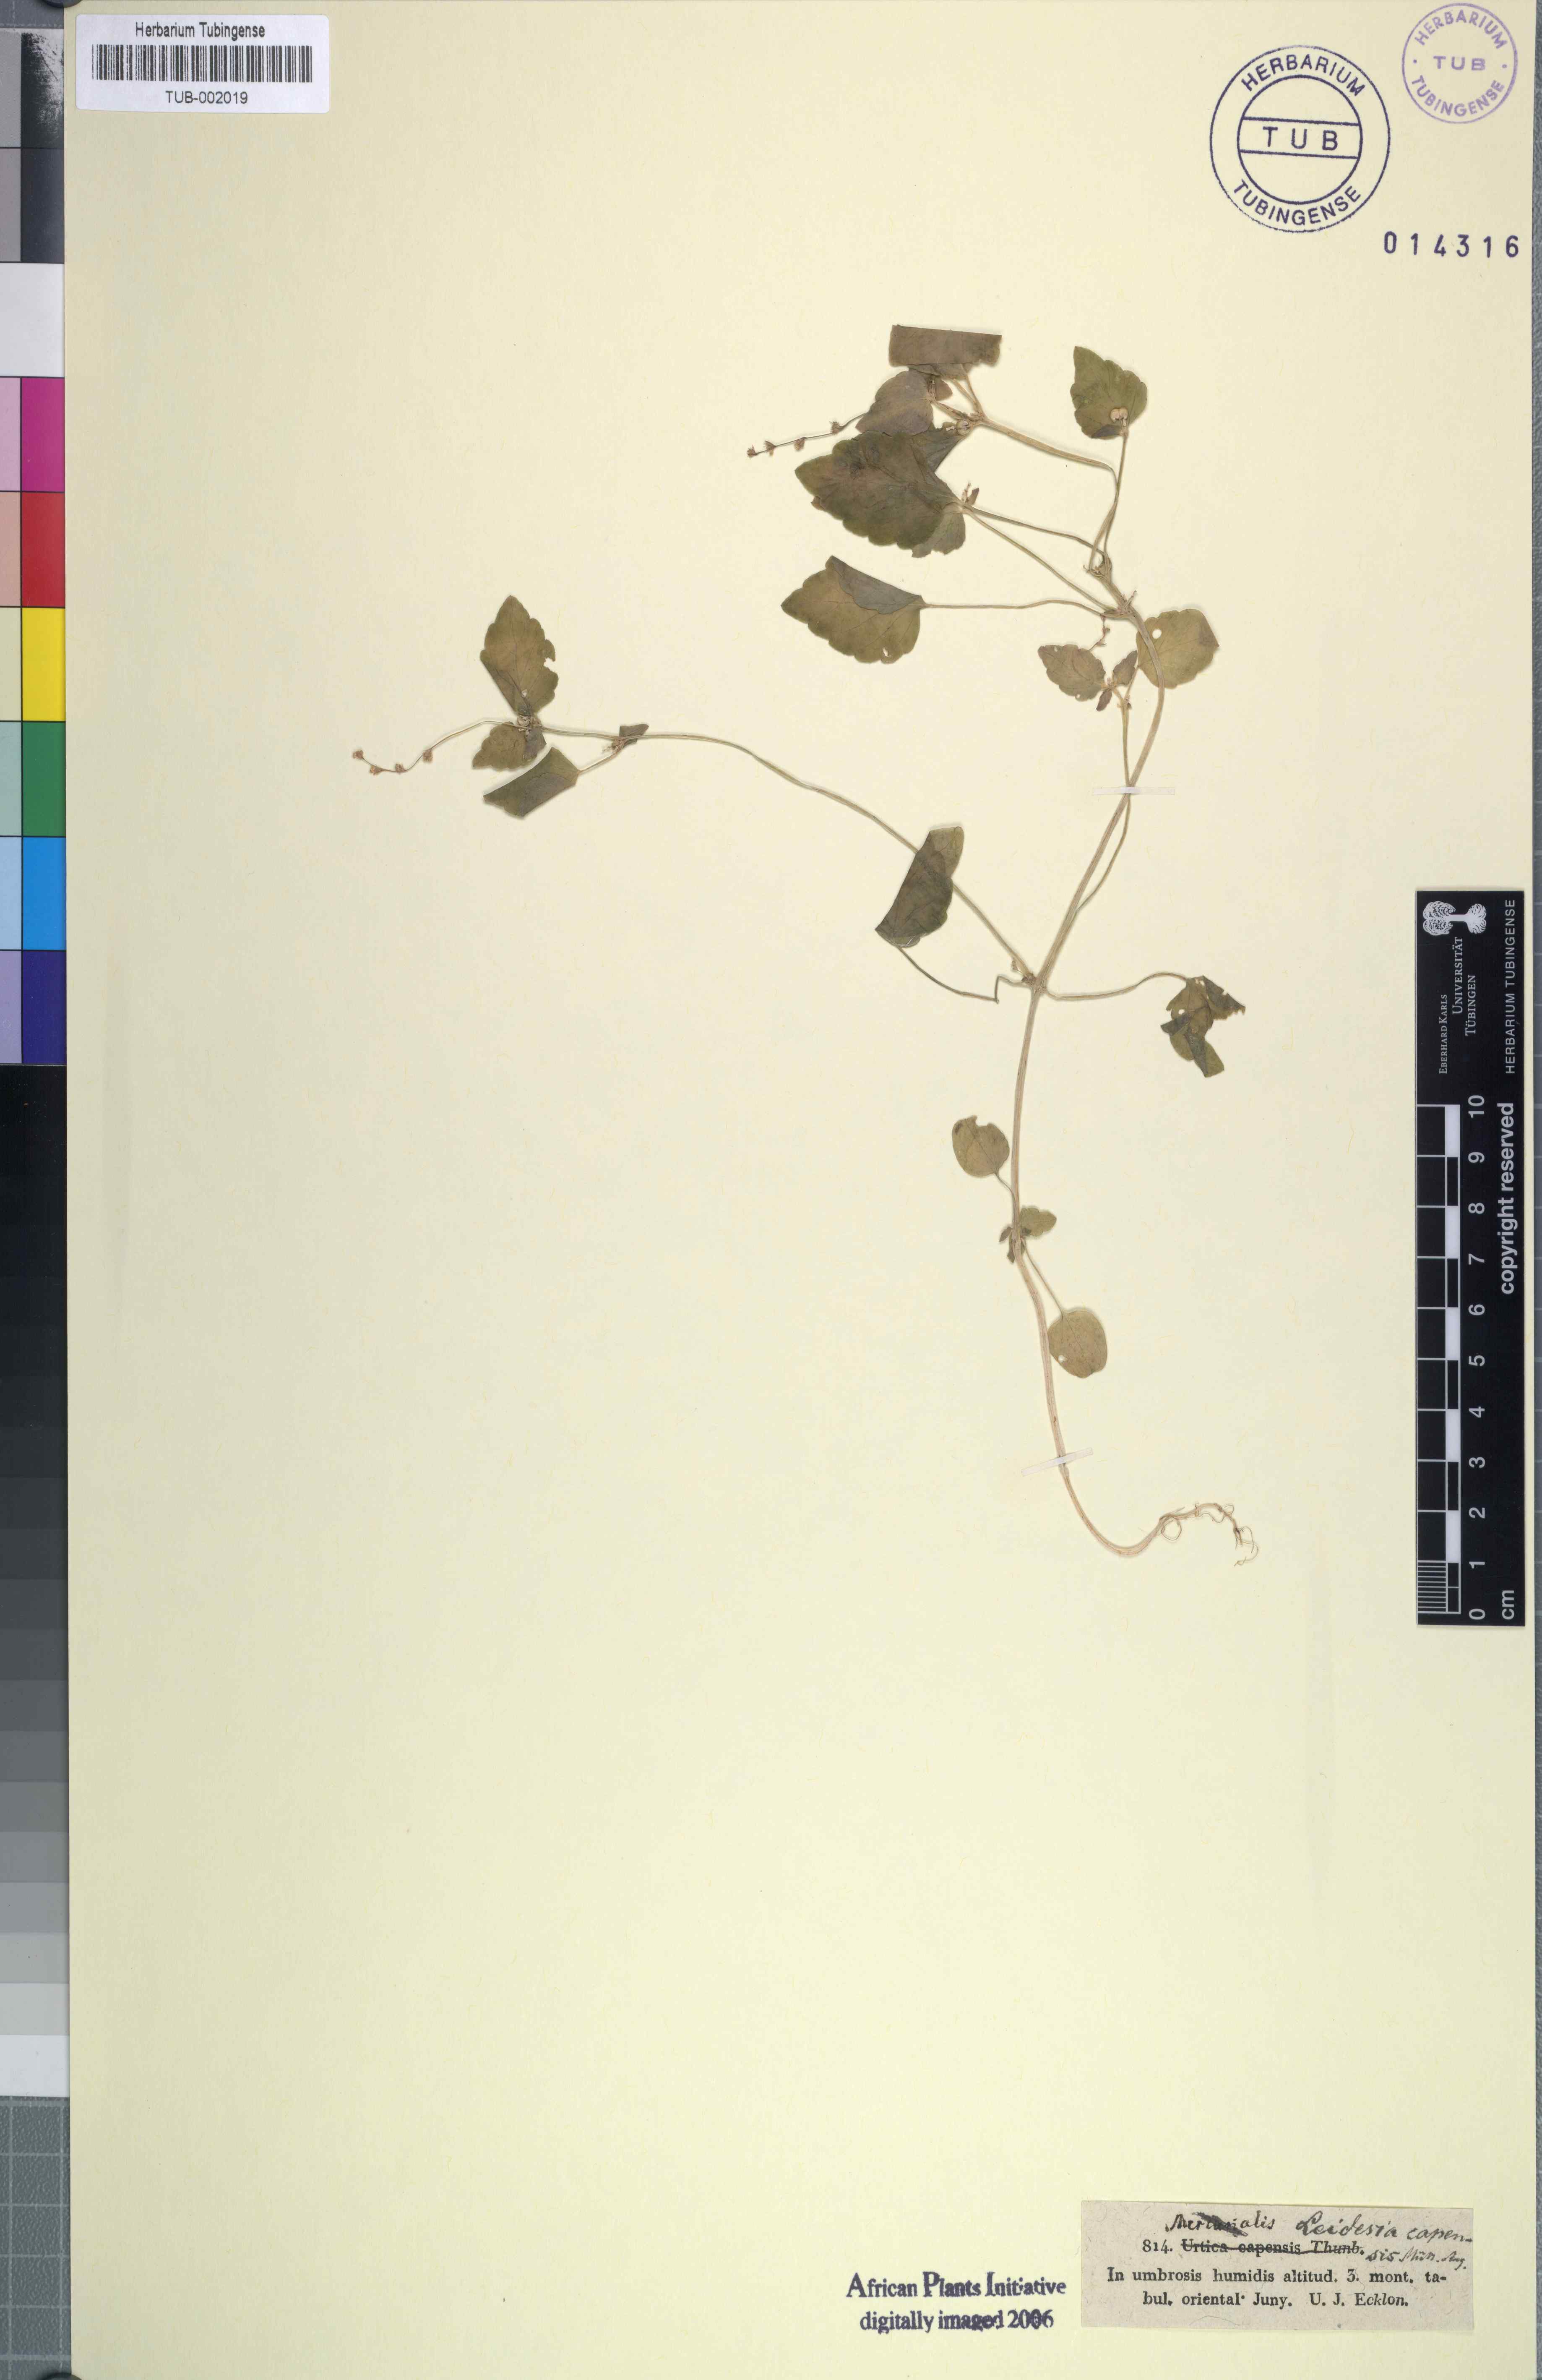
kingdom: Plantae
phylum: Tracheophyta
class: Magnoliopsida
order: Malpighiales
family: Euphorbiaceae
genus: Leidesia
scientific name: Leidesia procumbens
